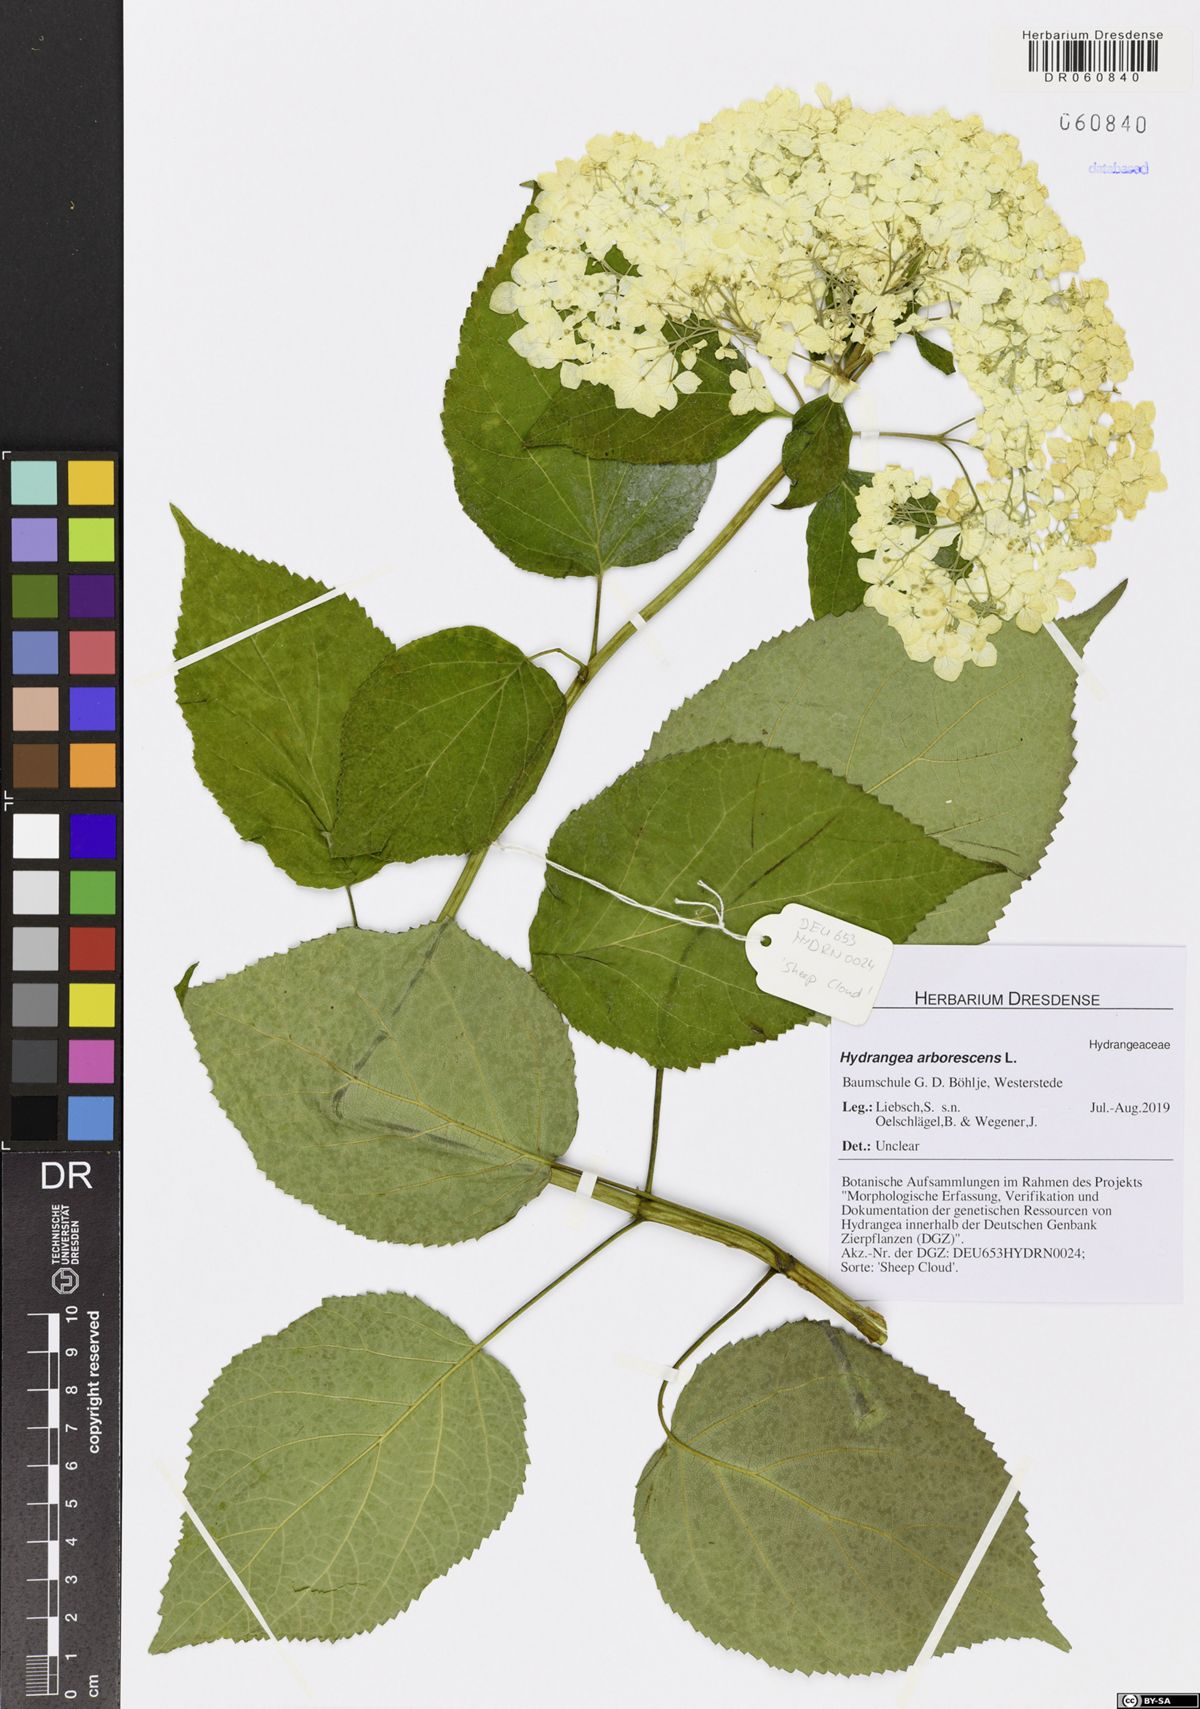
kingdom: Plantae
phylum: Tracheophyta
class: Magnoliopsida
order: Cornales
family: Hydrangeaceae
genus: Hydrangea
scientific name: Hydrangea arborescens
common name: Sevenbark
